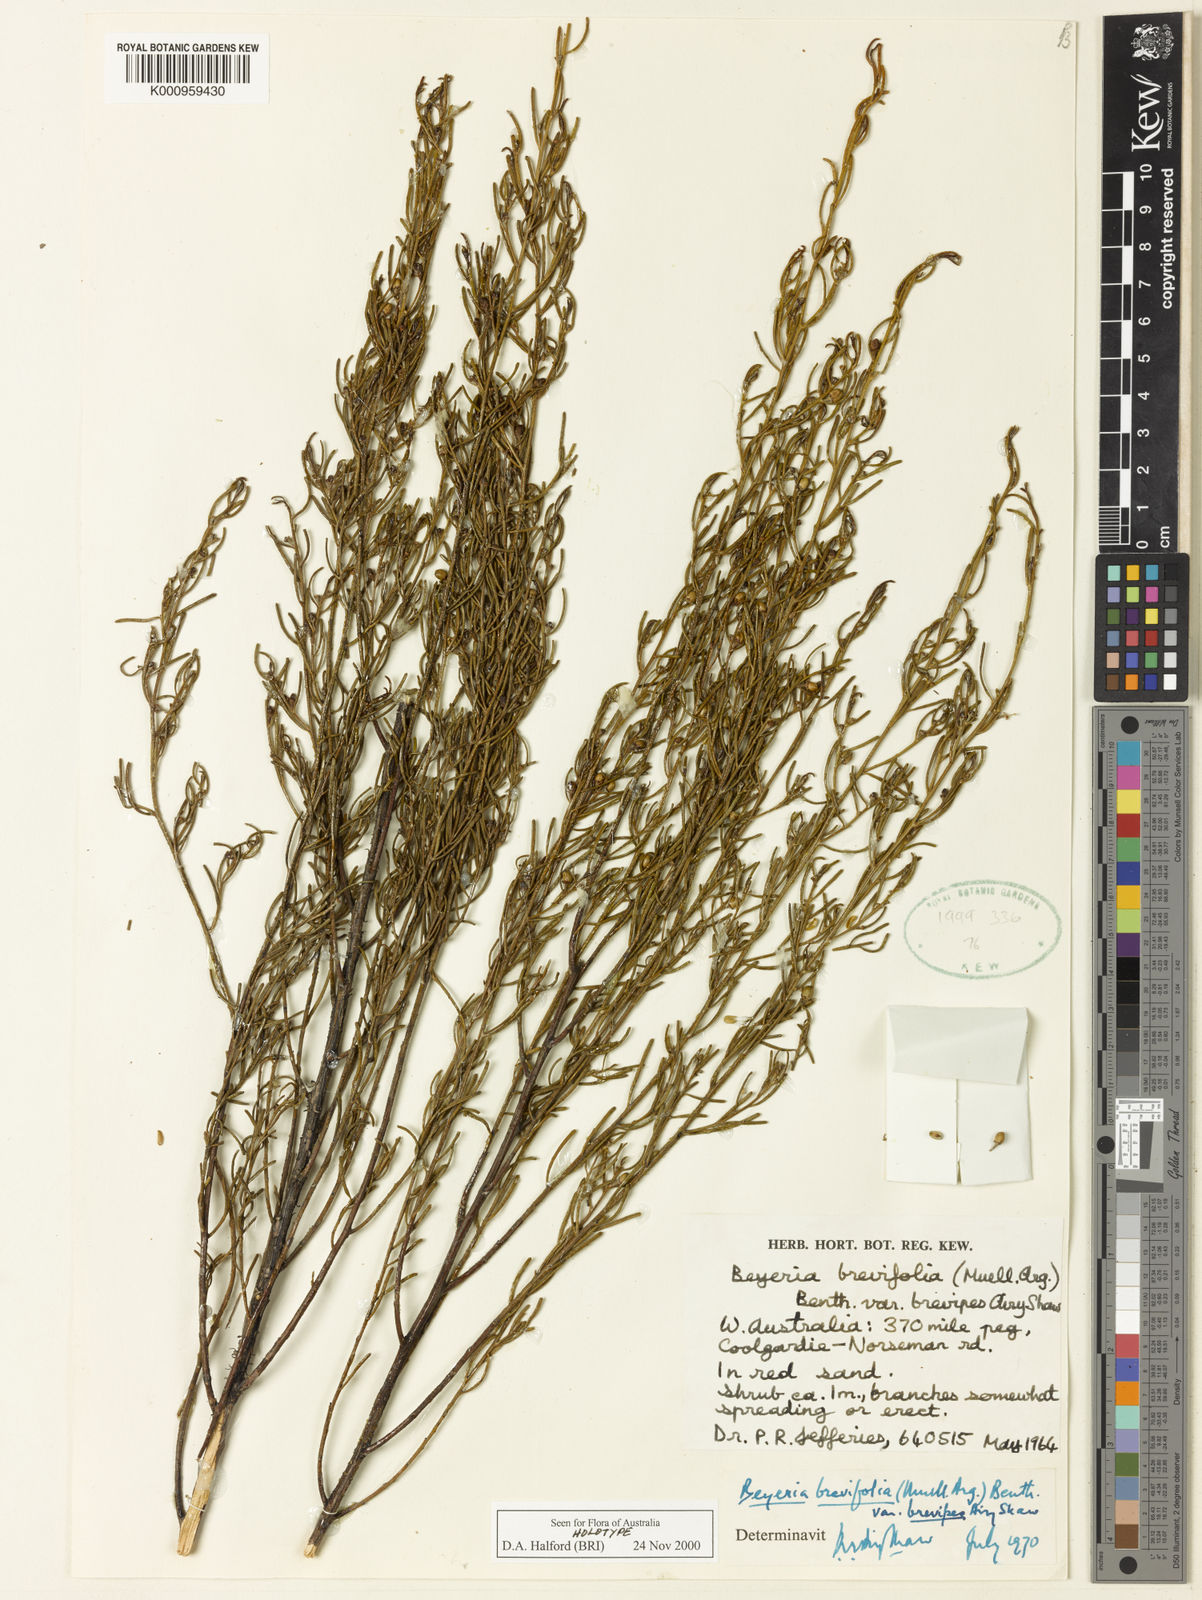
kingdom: Plantae
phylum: Tracheophyta
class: Magnoliopsida
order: Malpighiales
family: Euphorbiaceae
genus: Beyeria
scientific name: Beyeria
